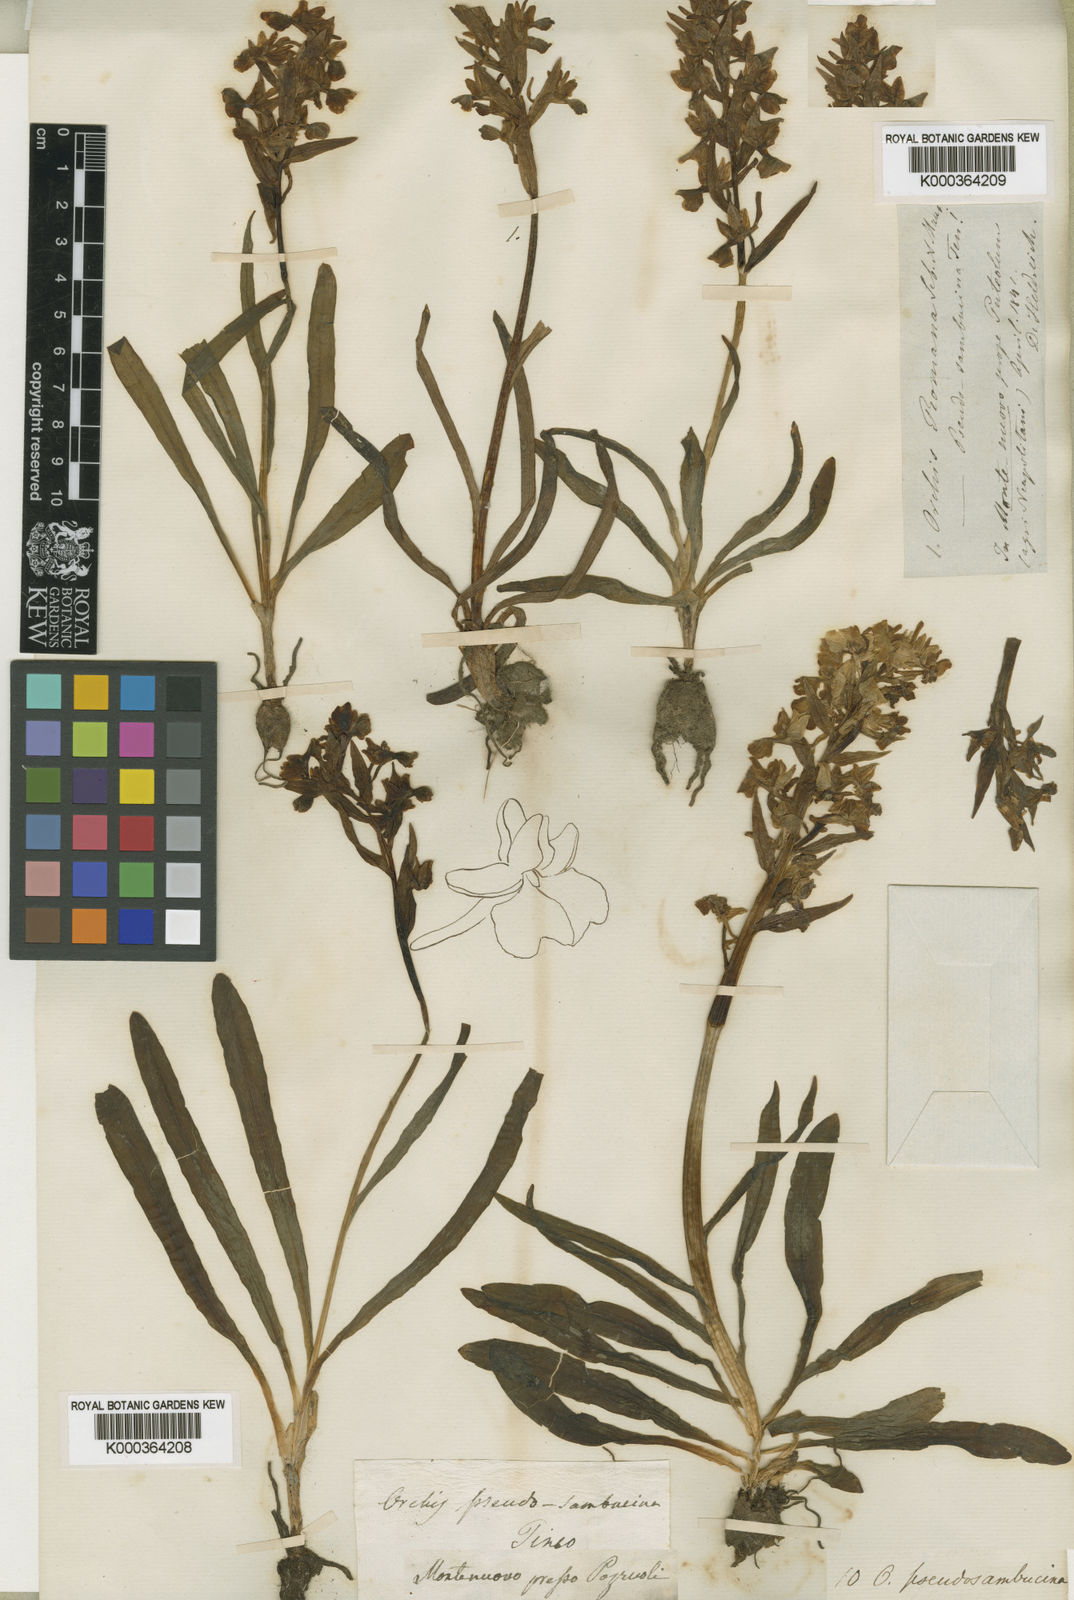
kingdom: Plantae
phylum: Tracheophyta
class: Liliopsida
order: Asparagales
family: Orchidaceae
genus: Dactylorhiza
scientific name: Dactylorhiza
